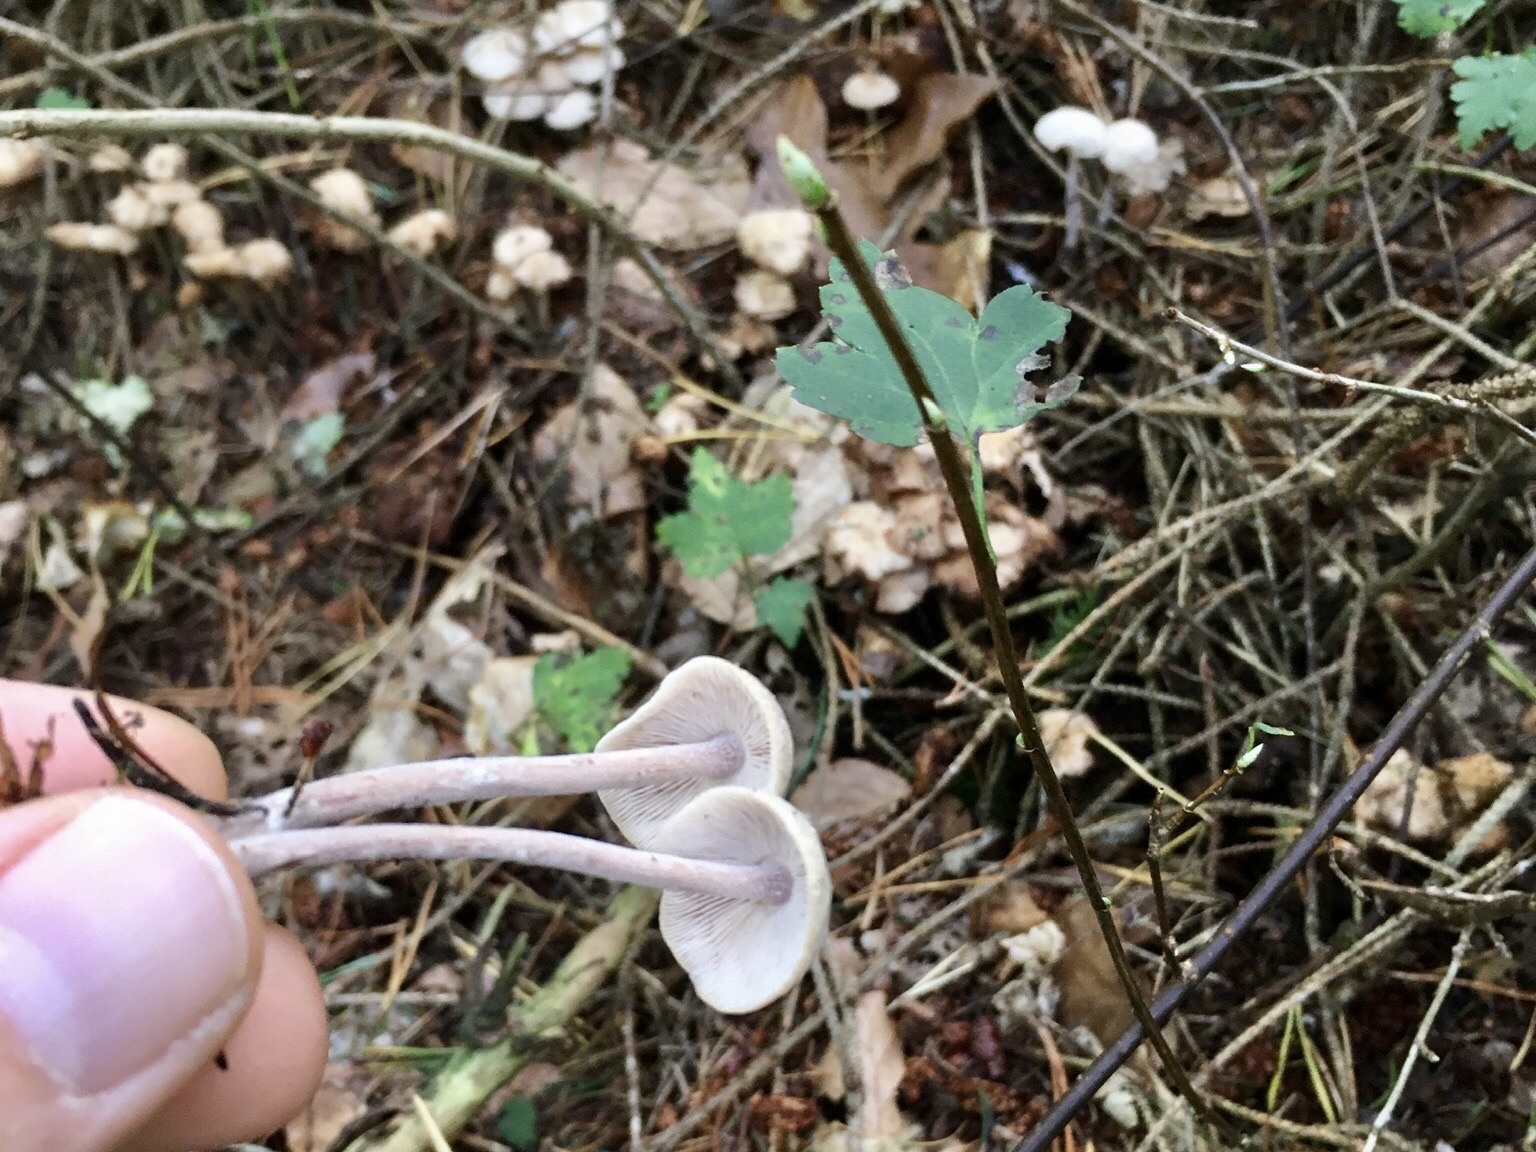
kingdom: Fungi
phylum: Basidiomycota
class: Agaricomycetes
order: Agaricales
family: Omphalotaceae
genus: Collybiopsis
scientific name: Collybiopsis confluens
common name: knippe-fladhat
